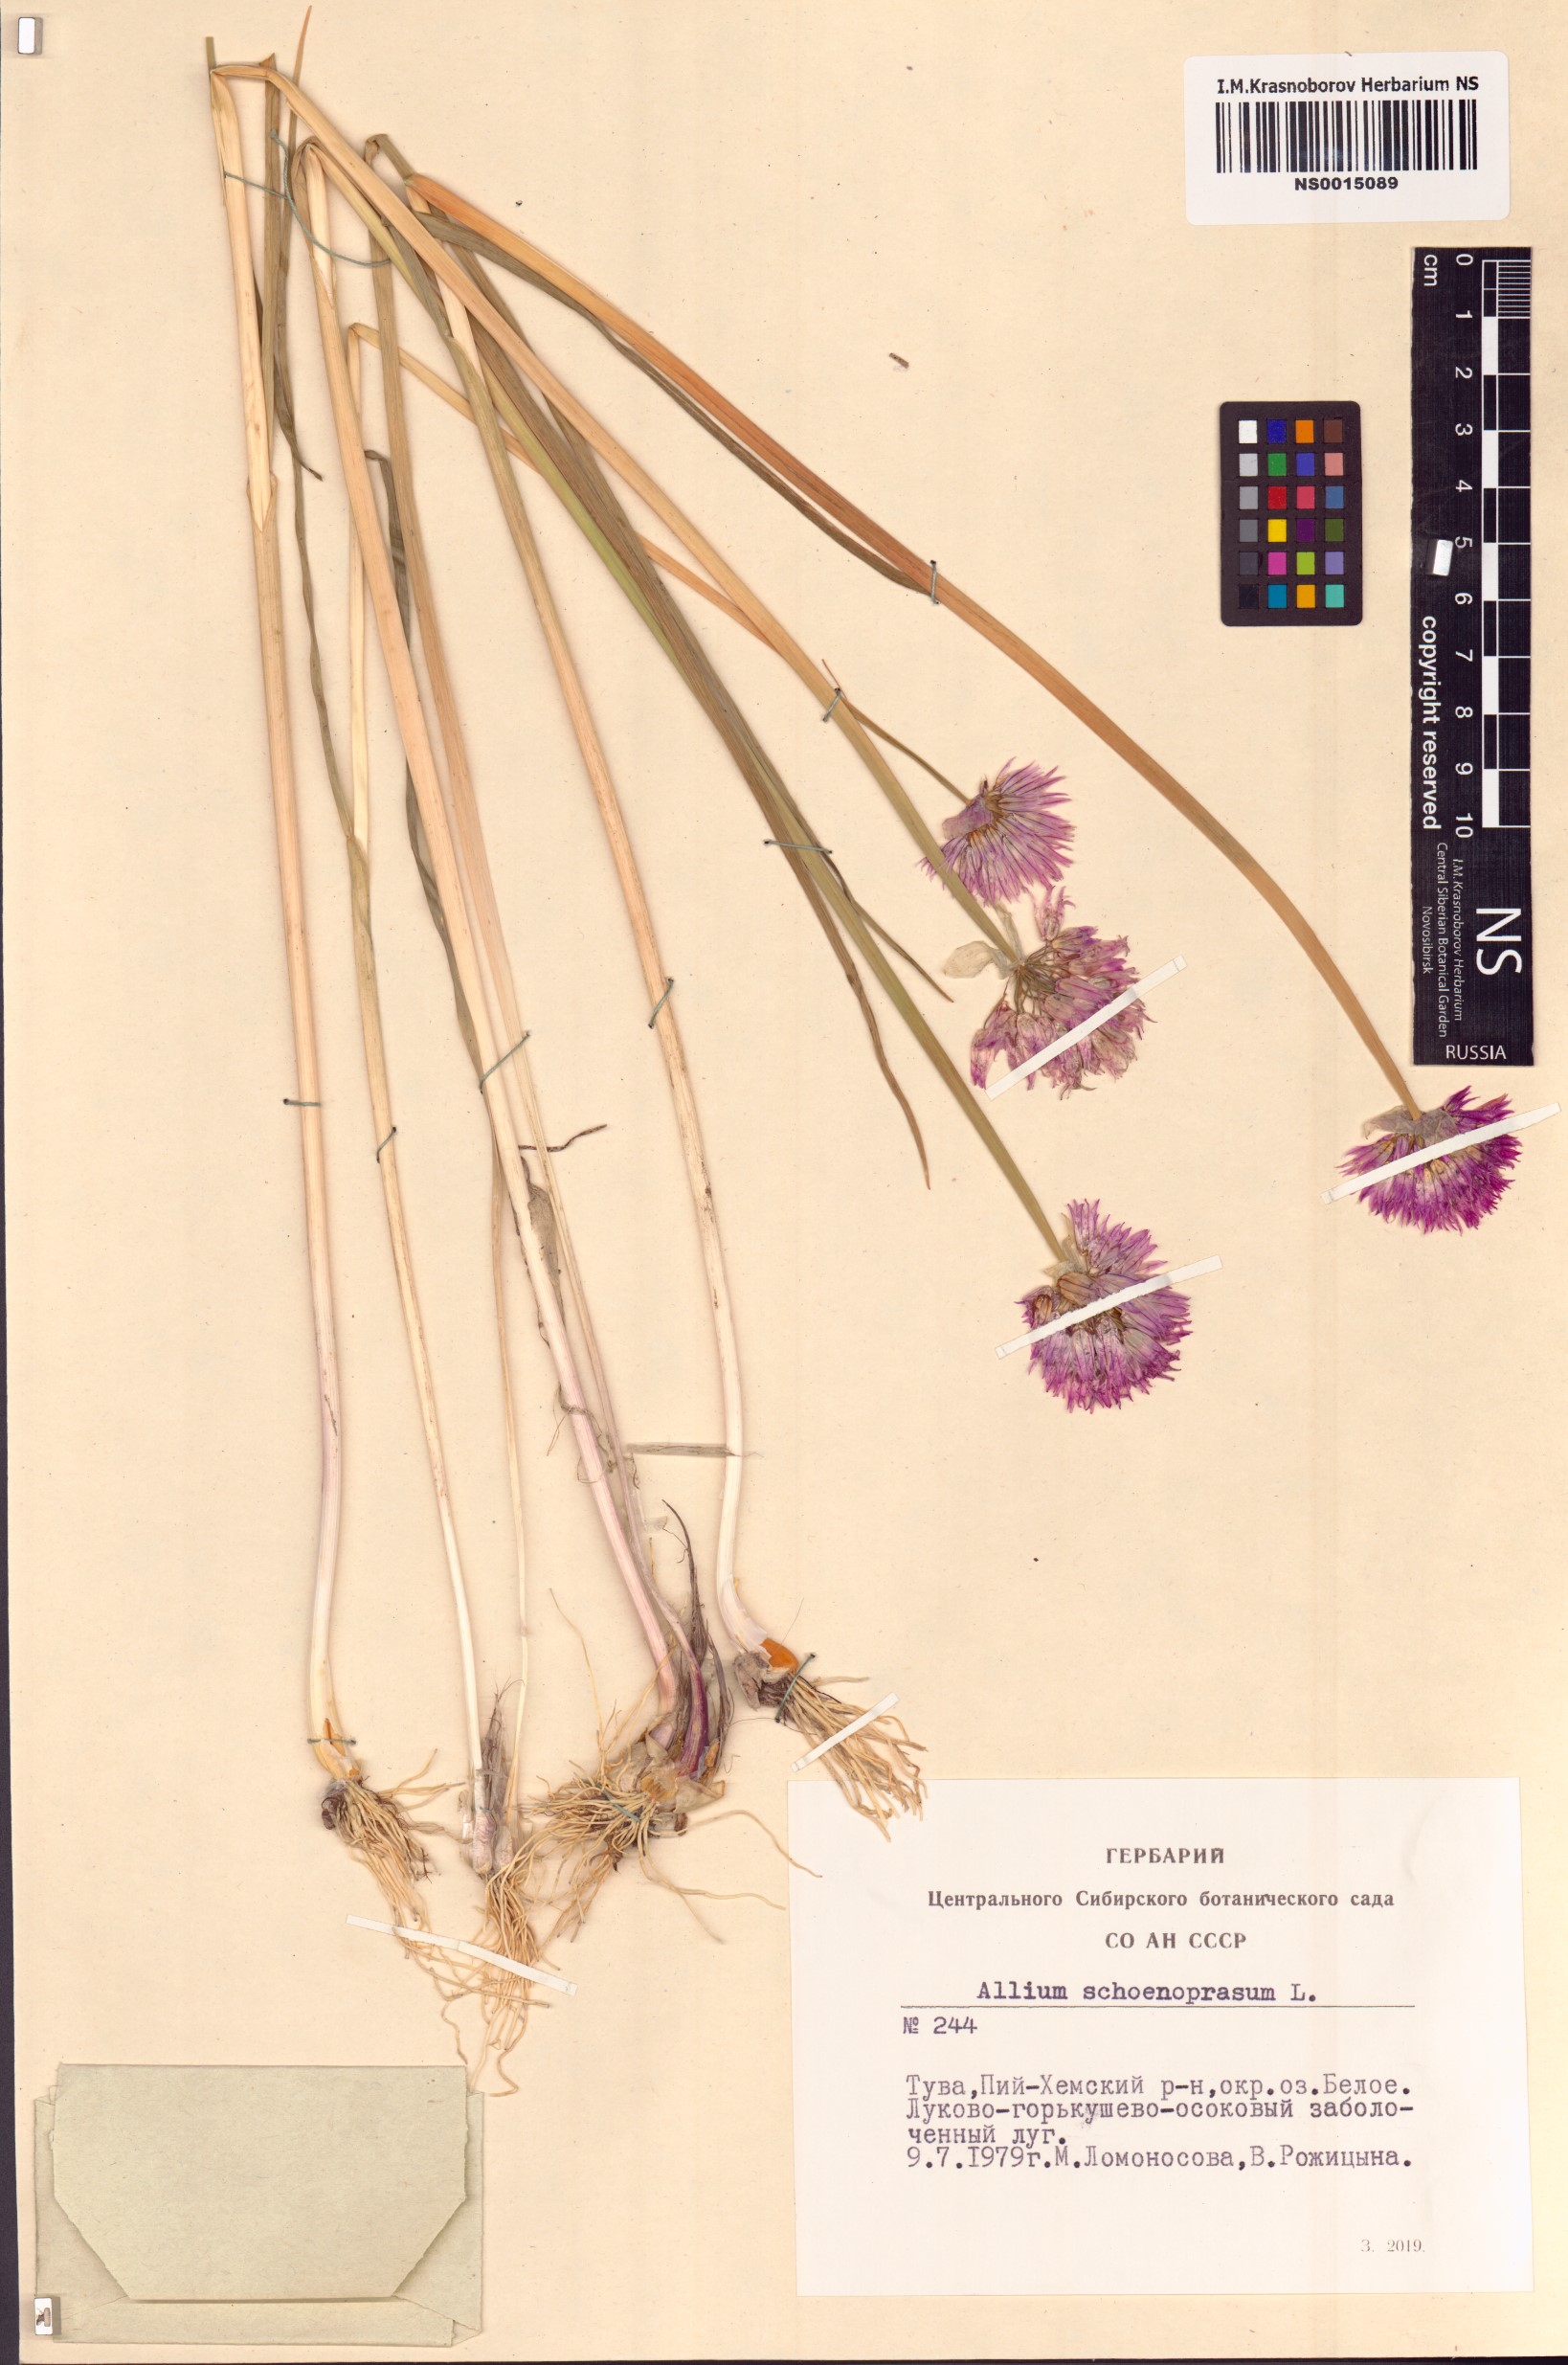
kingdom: Plantae
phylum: Tracheophyta
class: Liliopsida
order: Asparagales
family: Amaryllidaceae
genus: Allium
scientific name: Allium schoenoprasum
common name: Chives
